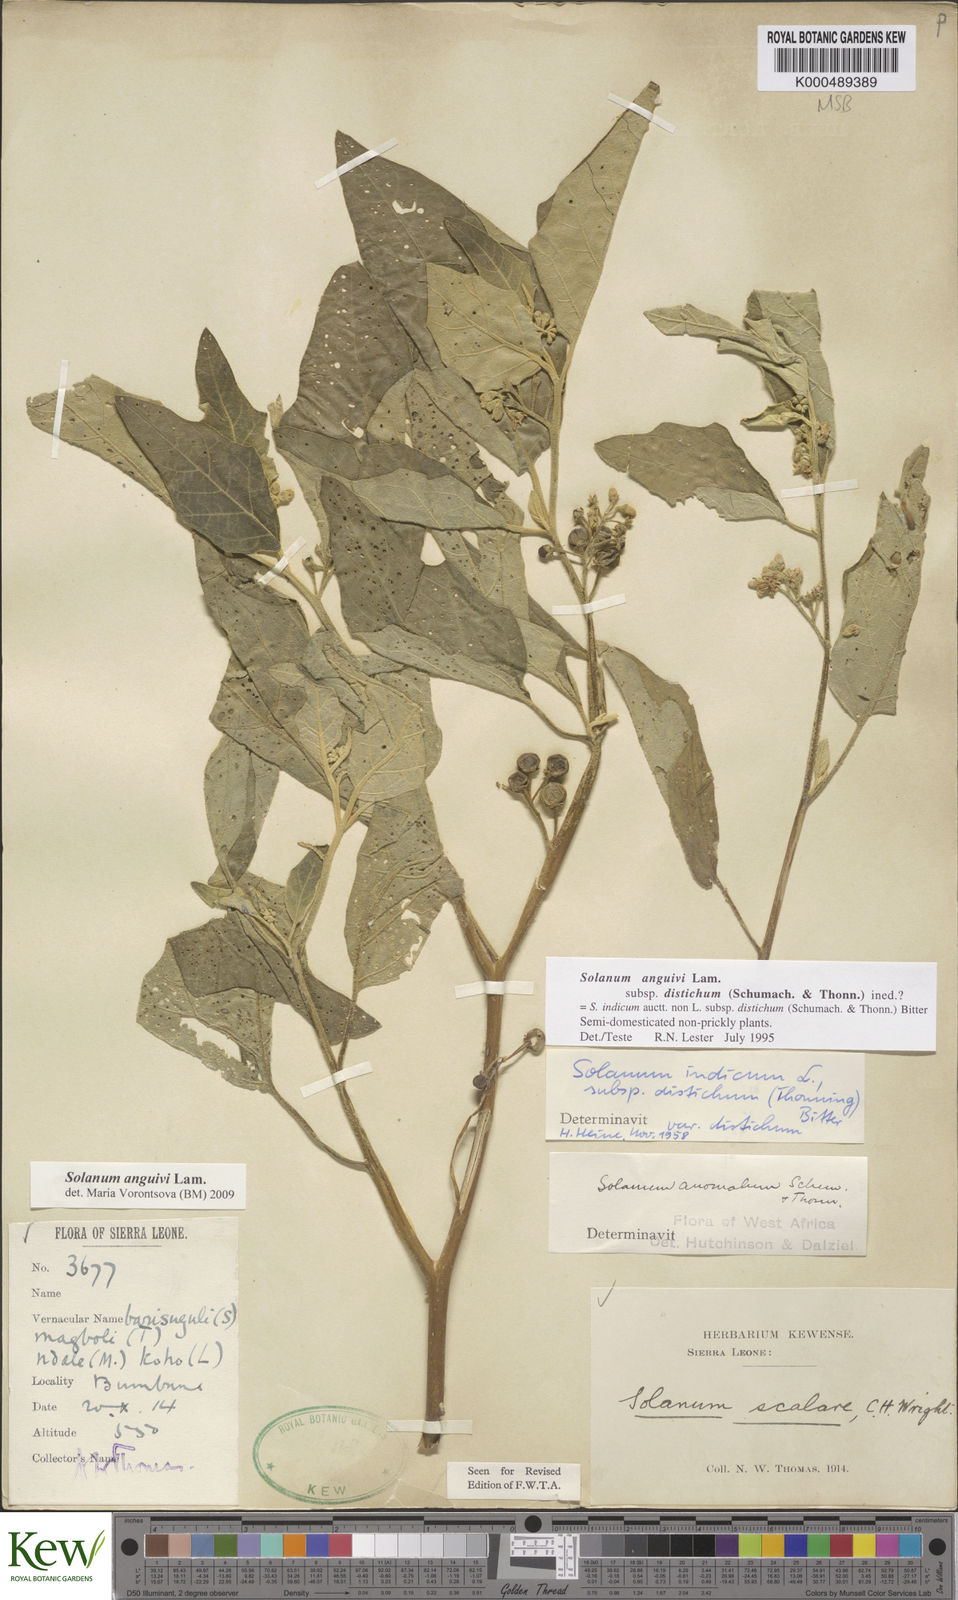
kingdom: Plantae
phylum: Tracheophyta
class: Magnoliopsida
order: Solanales
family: Solanaceae
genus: Solanum
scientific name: Solanum anguivi
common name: Forest bitterberry
